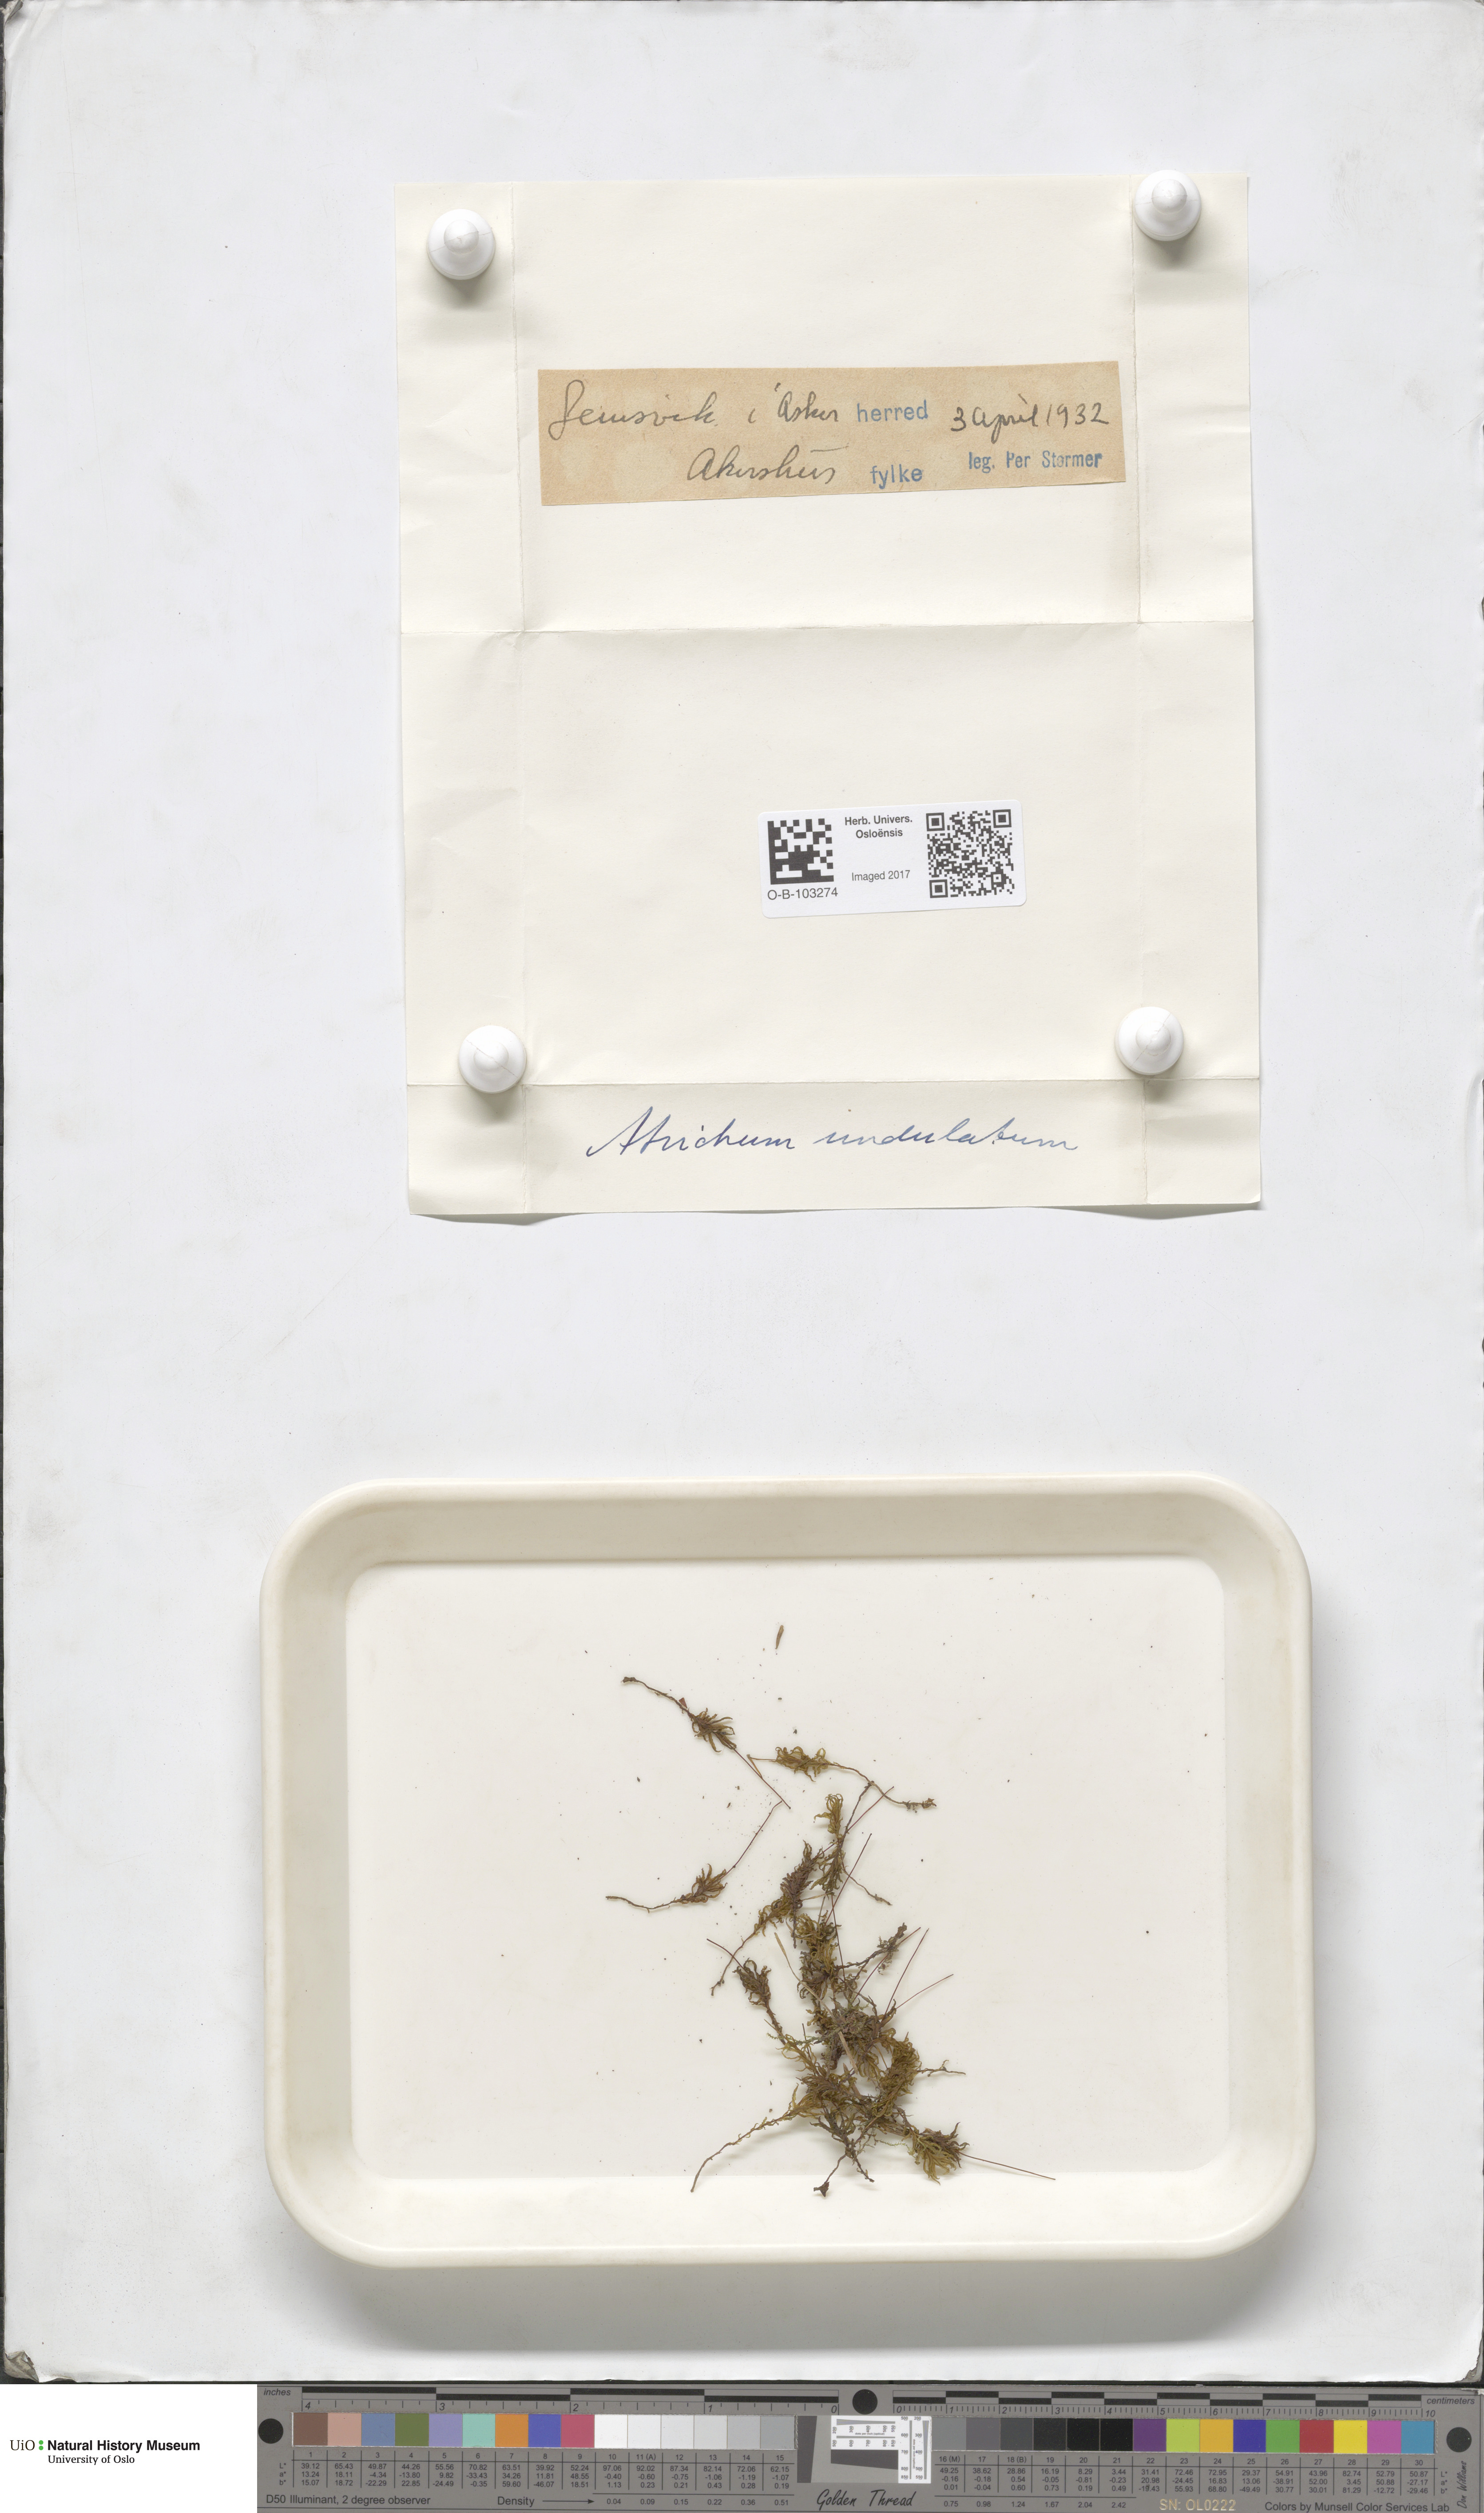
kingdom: Plantae
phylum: Bryophyta
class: Polytrichopsida
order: Polytrichales
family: Polytrichaceae
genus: Atrichum
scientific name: Atrichum undulatum
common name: Common smoothcap
